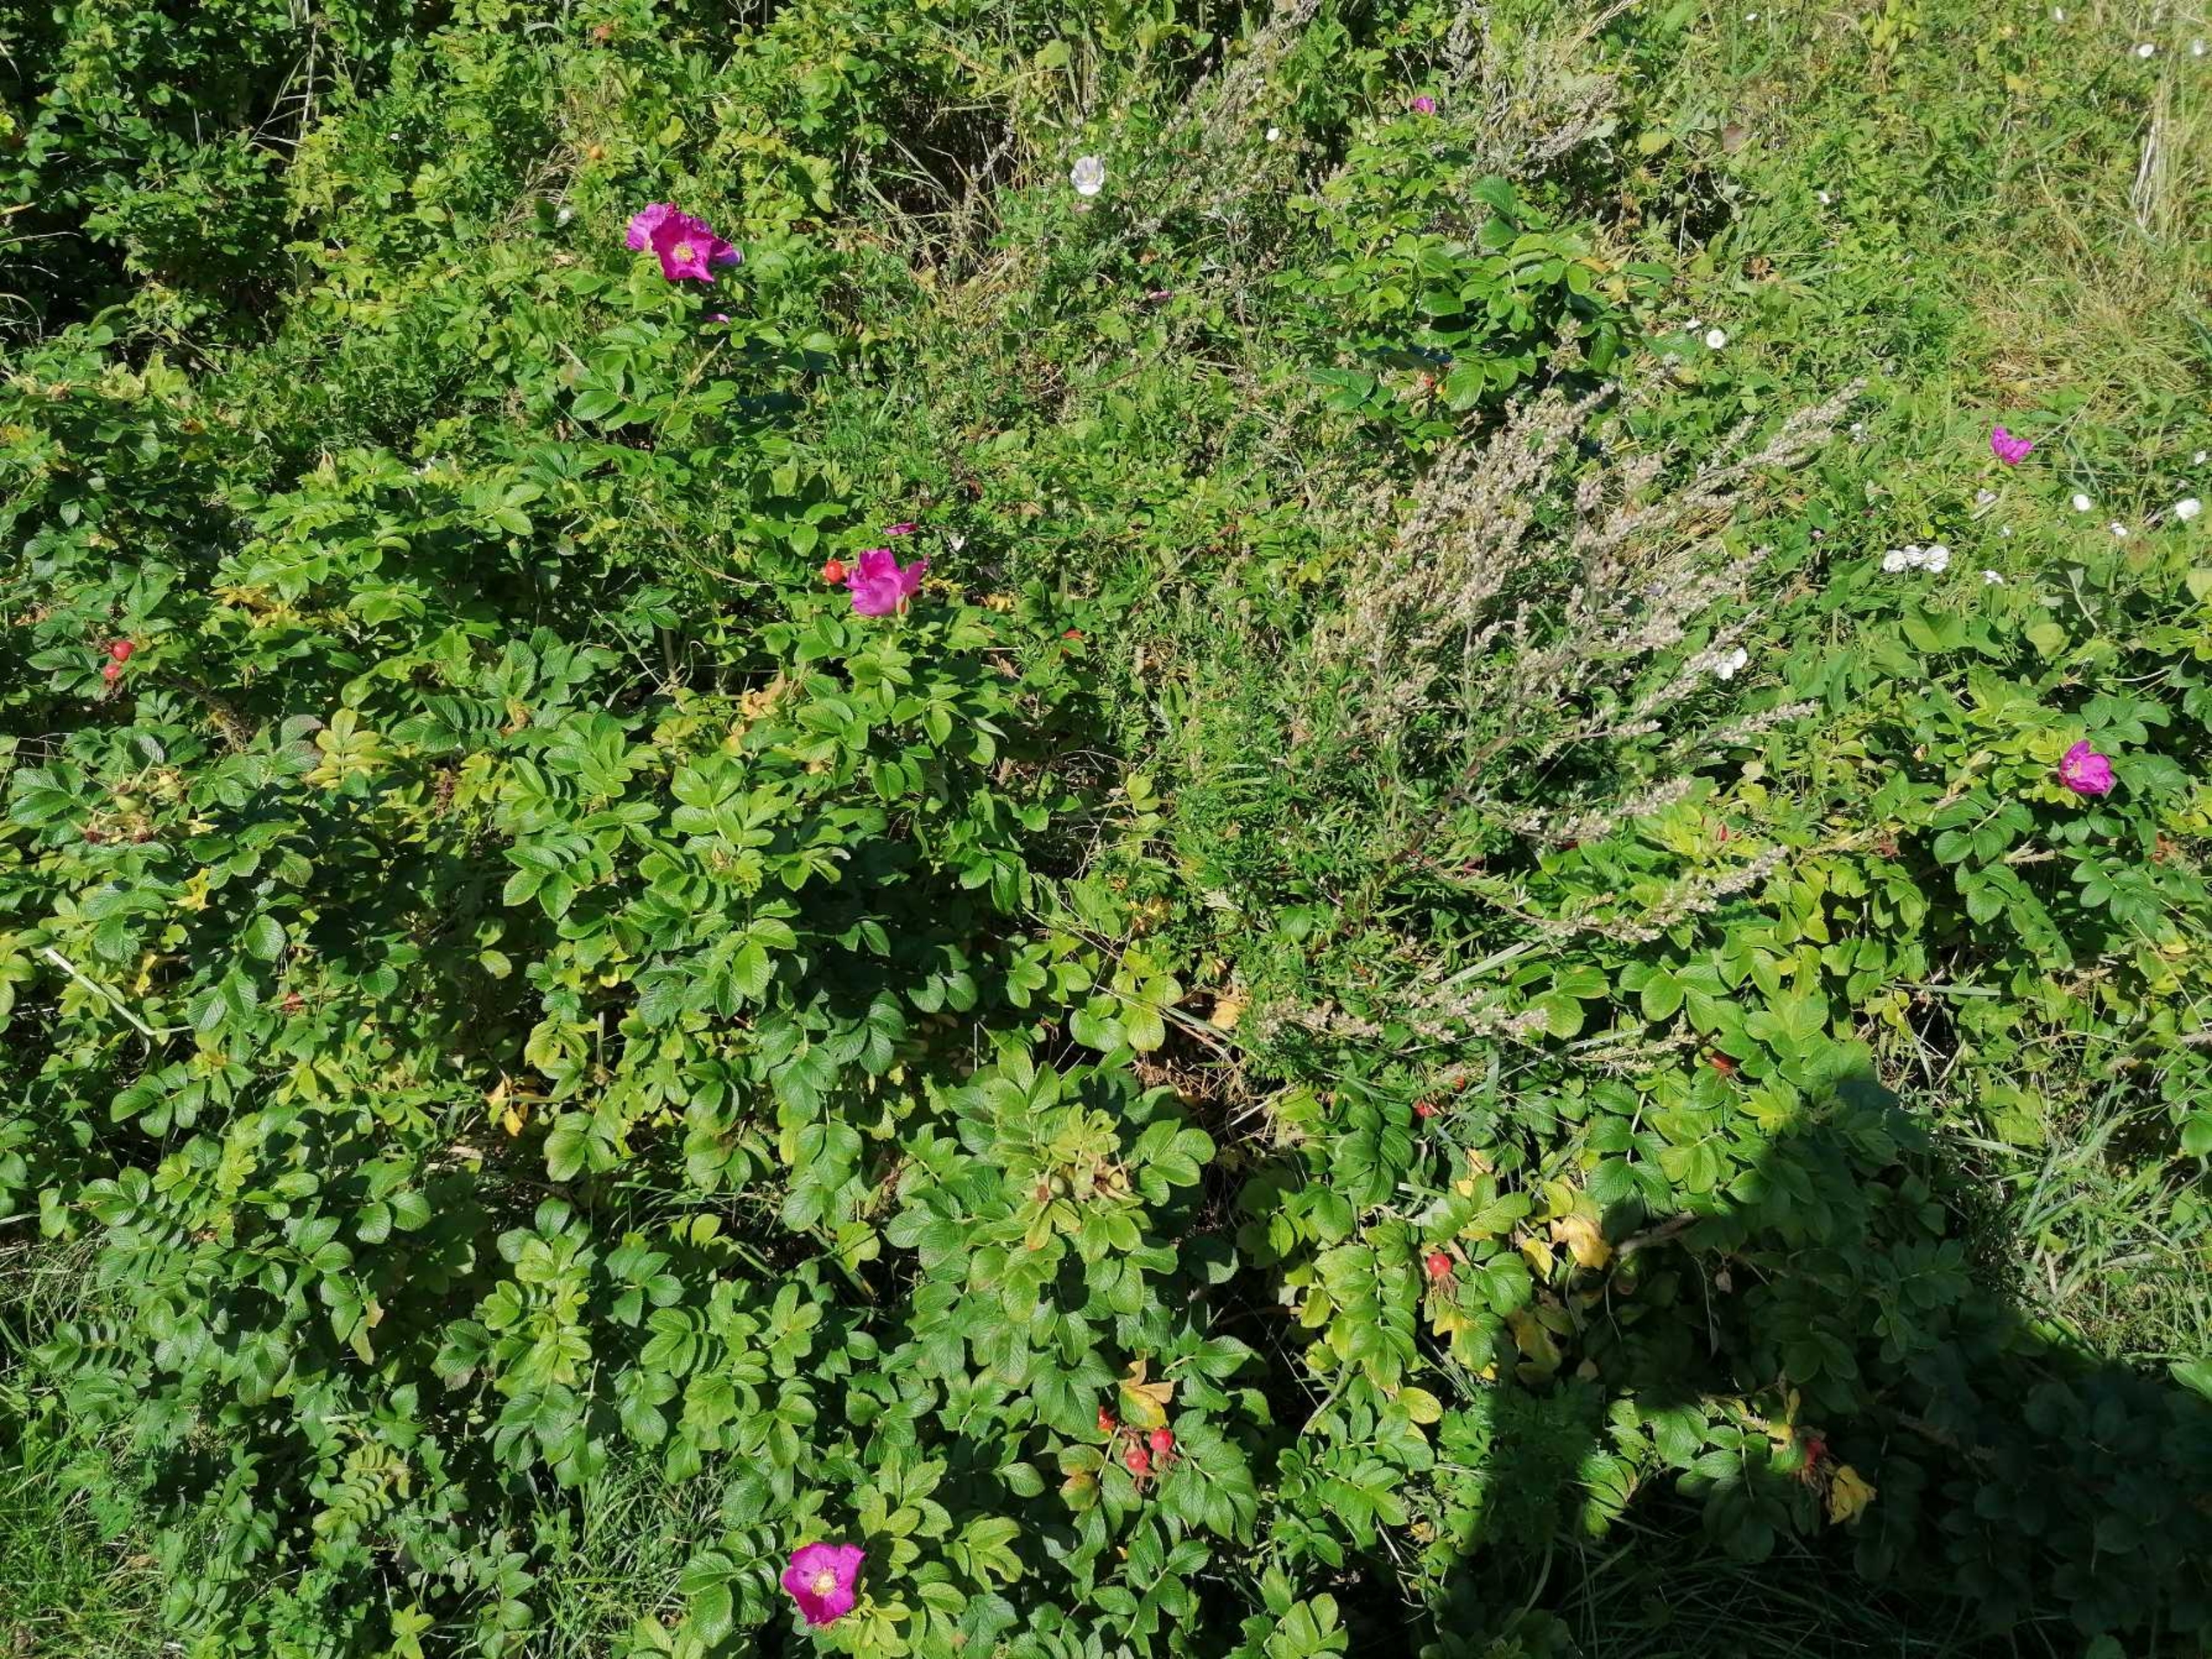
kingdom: Plantae
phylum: Tracheophyta
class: Magnoliopsida
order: Rosales
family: Rosaceae
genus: Rosa
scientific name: Rosa rugosa
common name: Rynket rose
